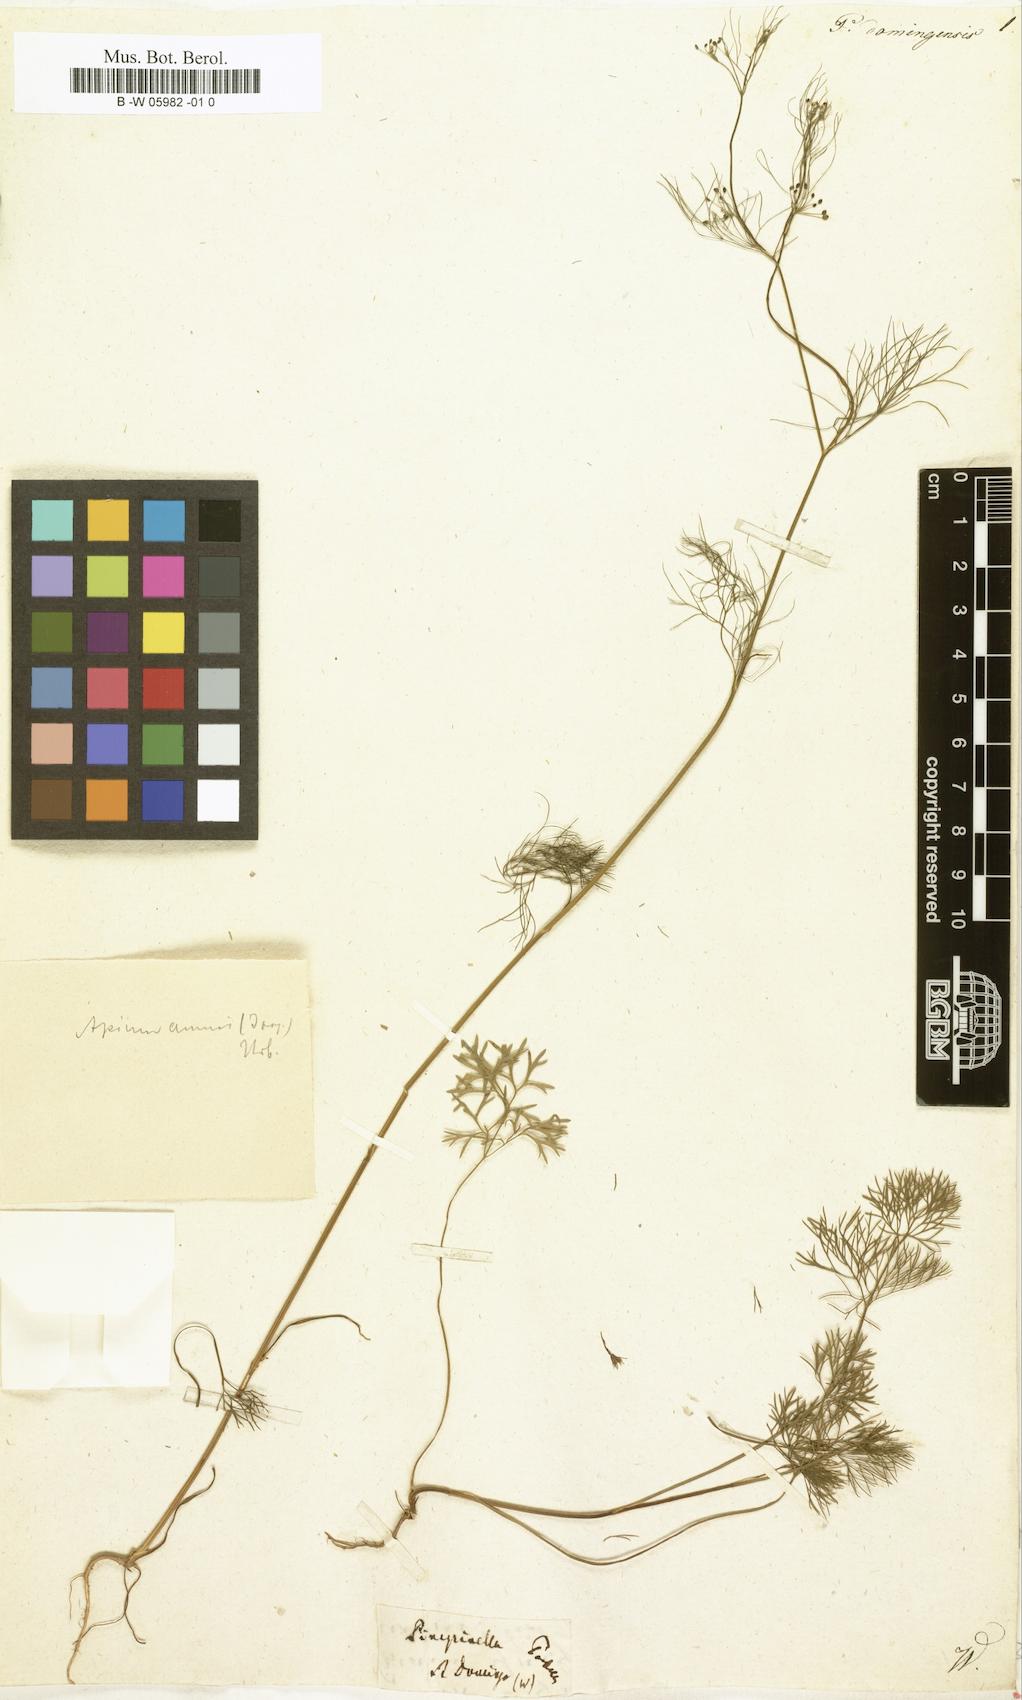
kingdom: Plantae
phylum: Tracheophyta
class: Magnoliopsida
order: Apiales
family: Apiaceae
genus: Cyclospermum
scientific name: Cyclospermum leptophyllum
